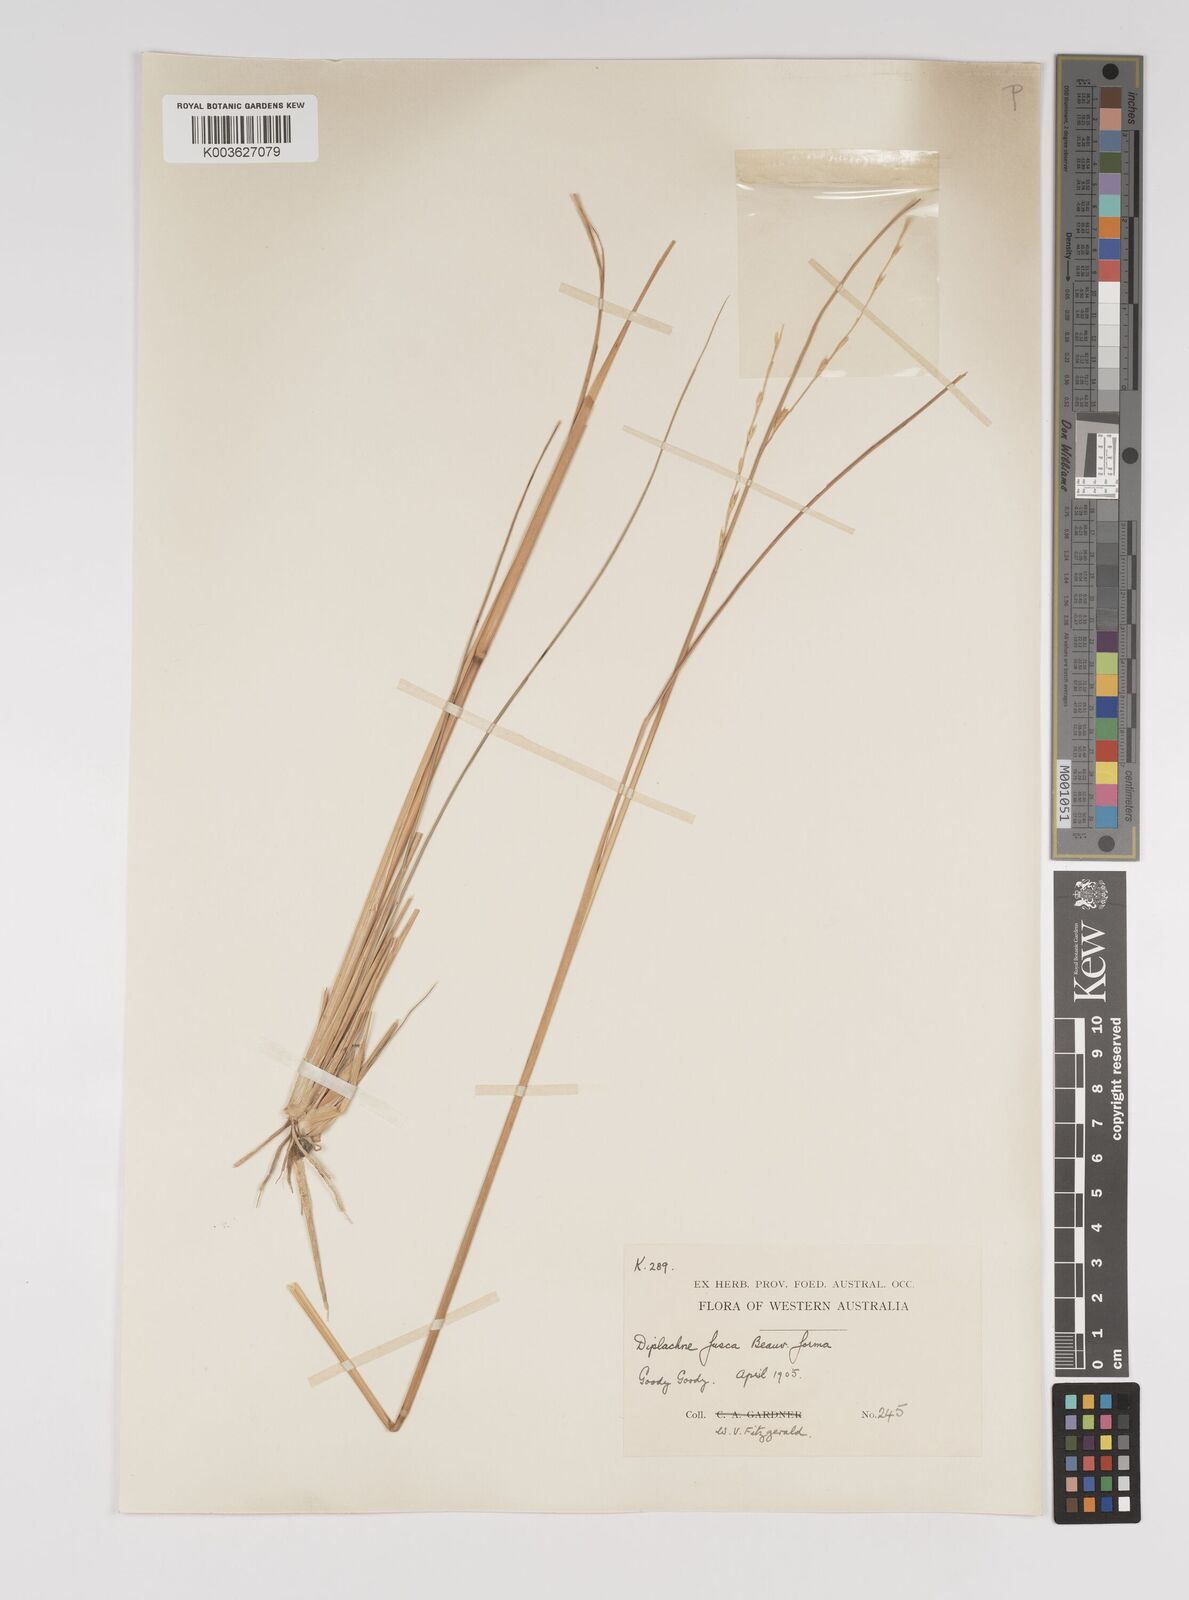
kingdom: Plantae
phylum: Tracheophyta
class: Liliopsida
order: Poales
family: Poaceae
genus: Diplachne
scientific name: Diplachne fusca
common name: Brown beetle grass
